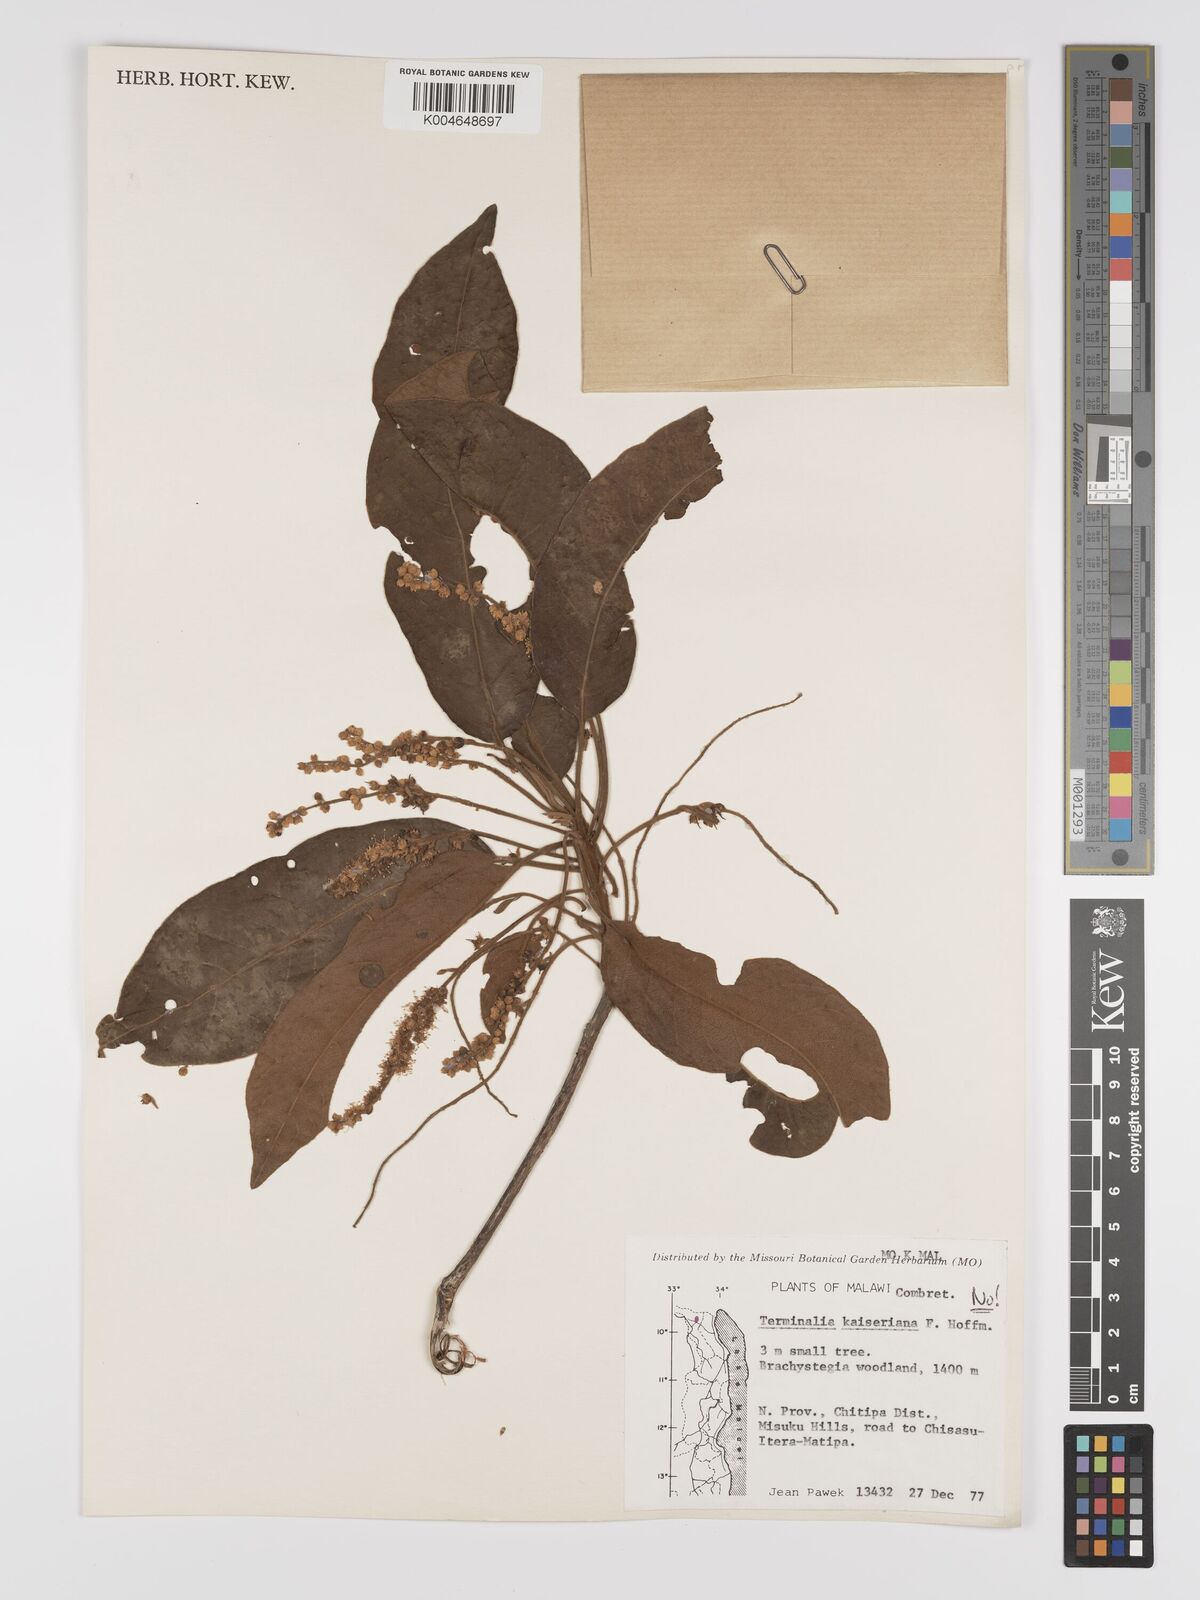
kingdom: Plantae
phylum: Tracheophyta
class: Magnoliopsida
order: Myrtales
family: Combretaceae
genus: Terminalia
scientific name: Terminalia stenostachya
